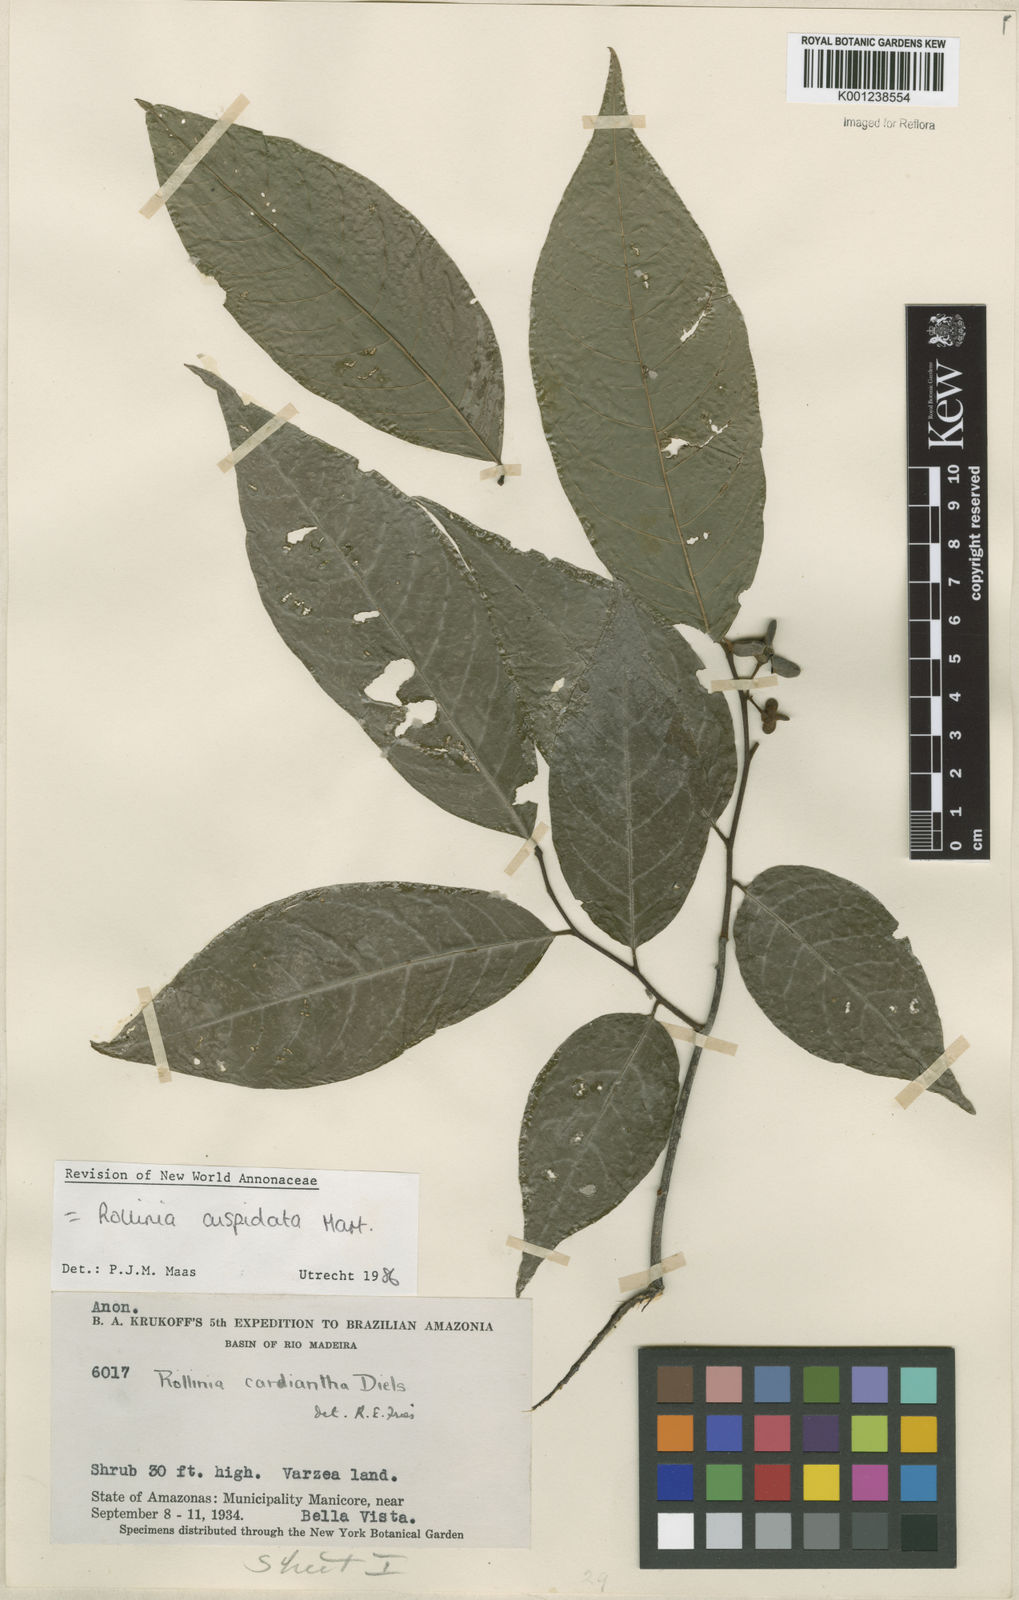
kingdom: Plantae
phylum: Tracheophyta
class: Magnoliopsida
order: Magnoliales
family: Annonaceae
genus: Annona
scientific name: Annona cuspidata
